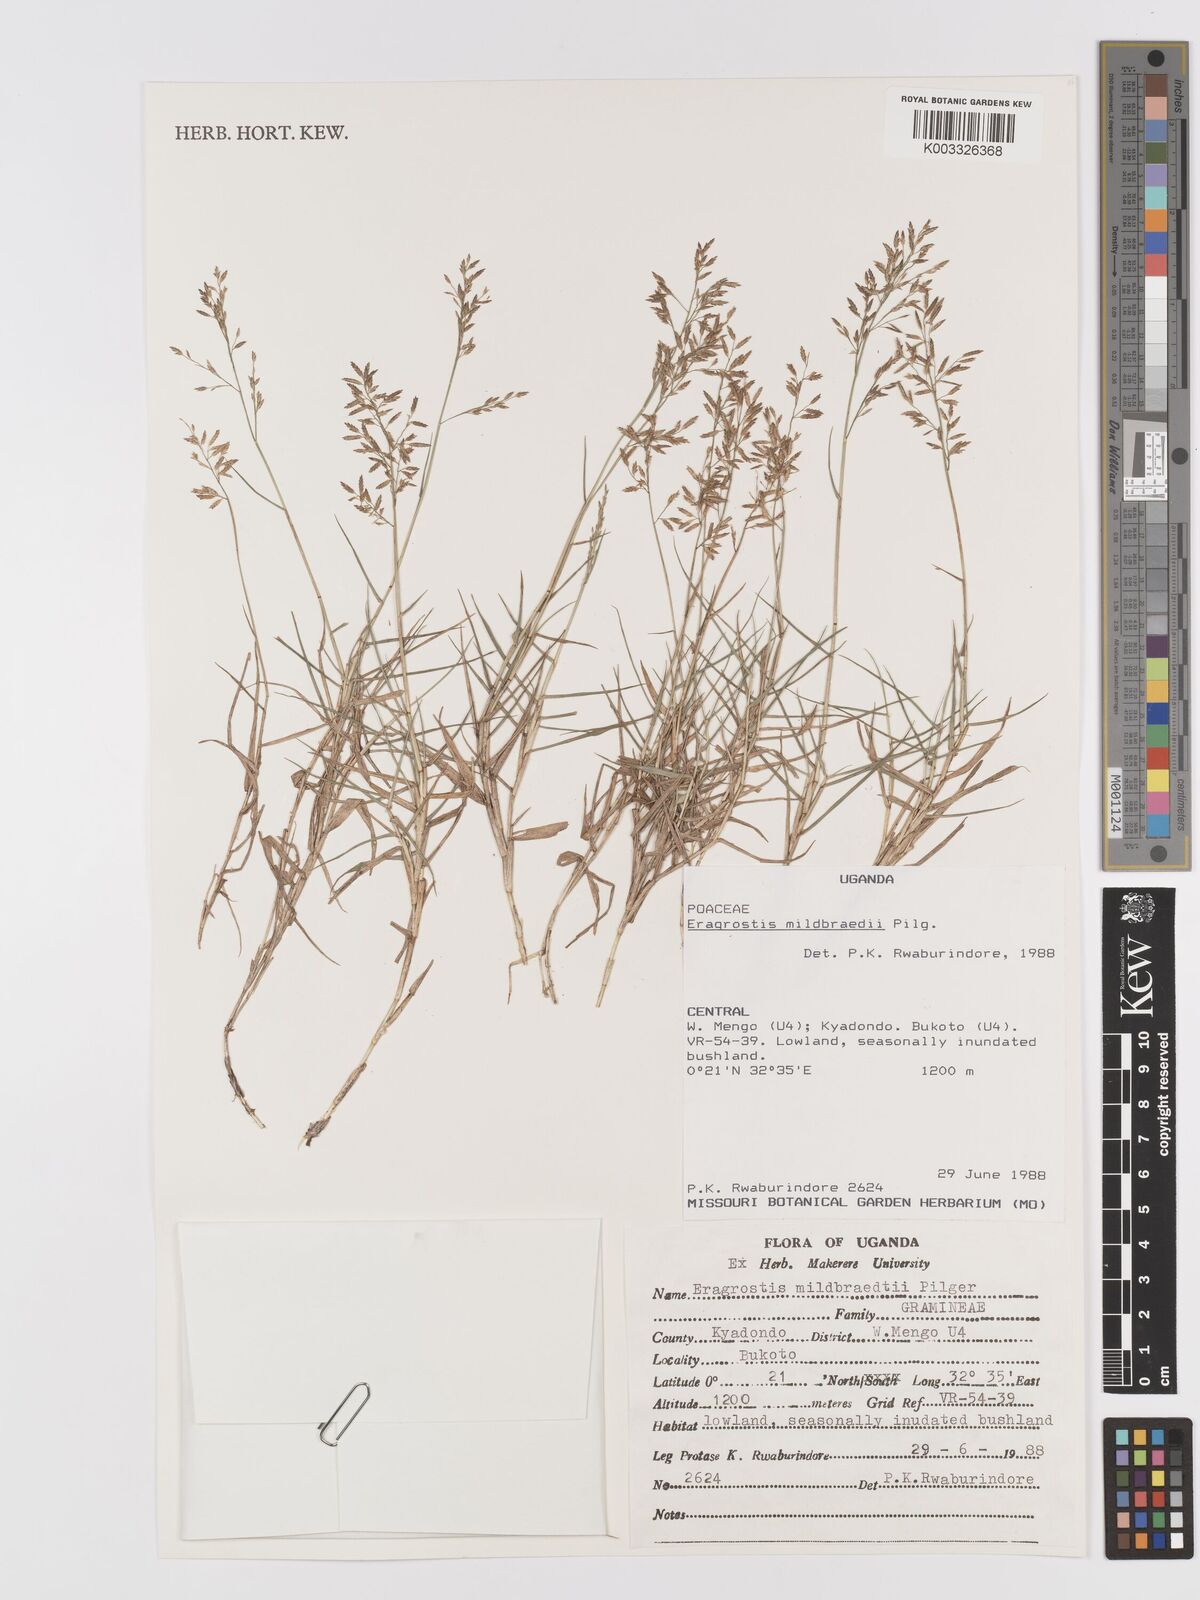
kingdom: Plantae
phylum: Tracheophyta
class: Liliopsida
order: Poales
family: Poaceae
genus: Eragrostis
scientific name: Eragrostis mildbraedii
